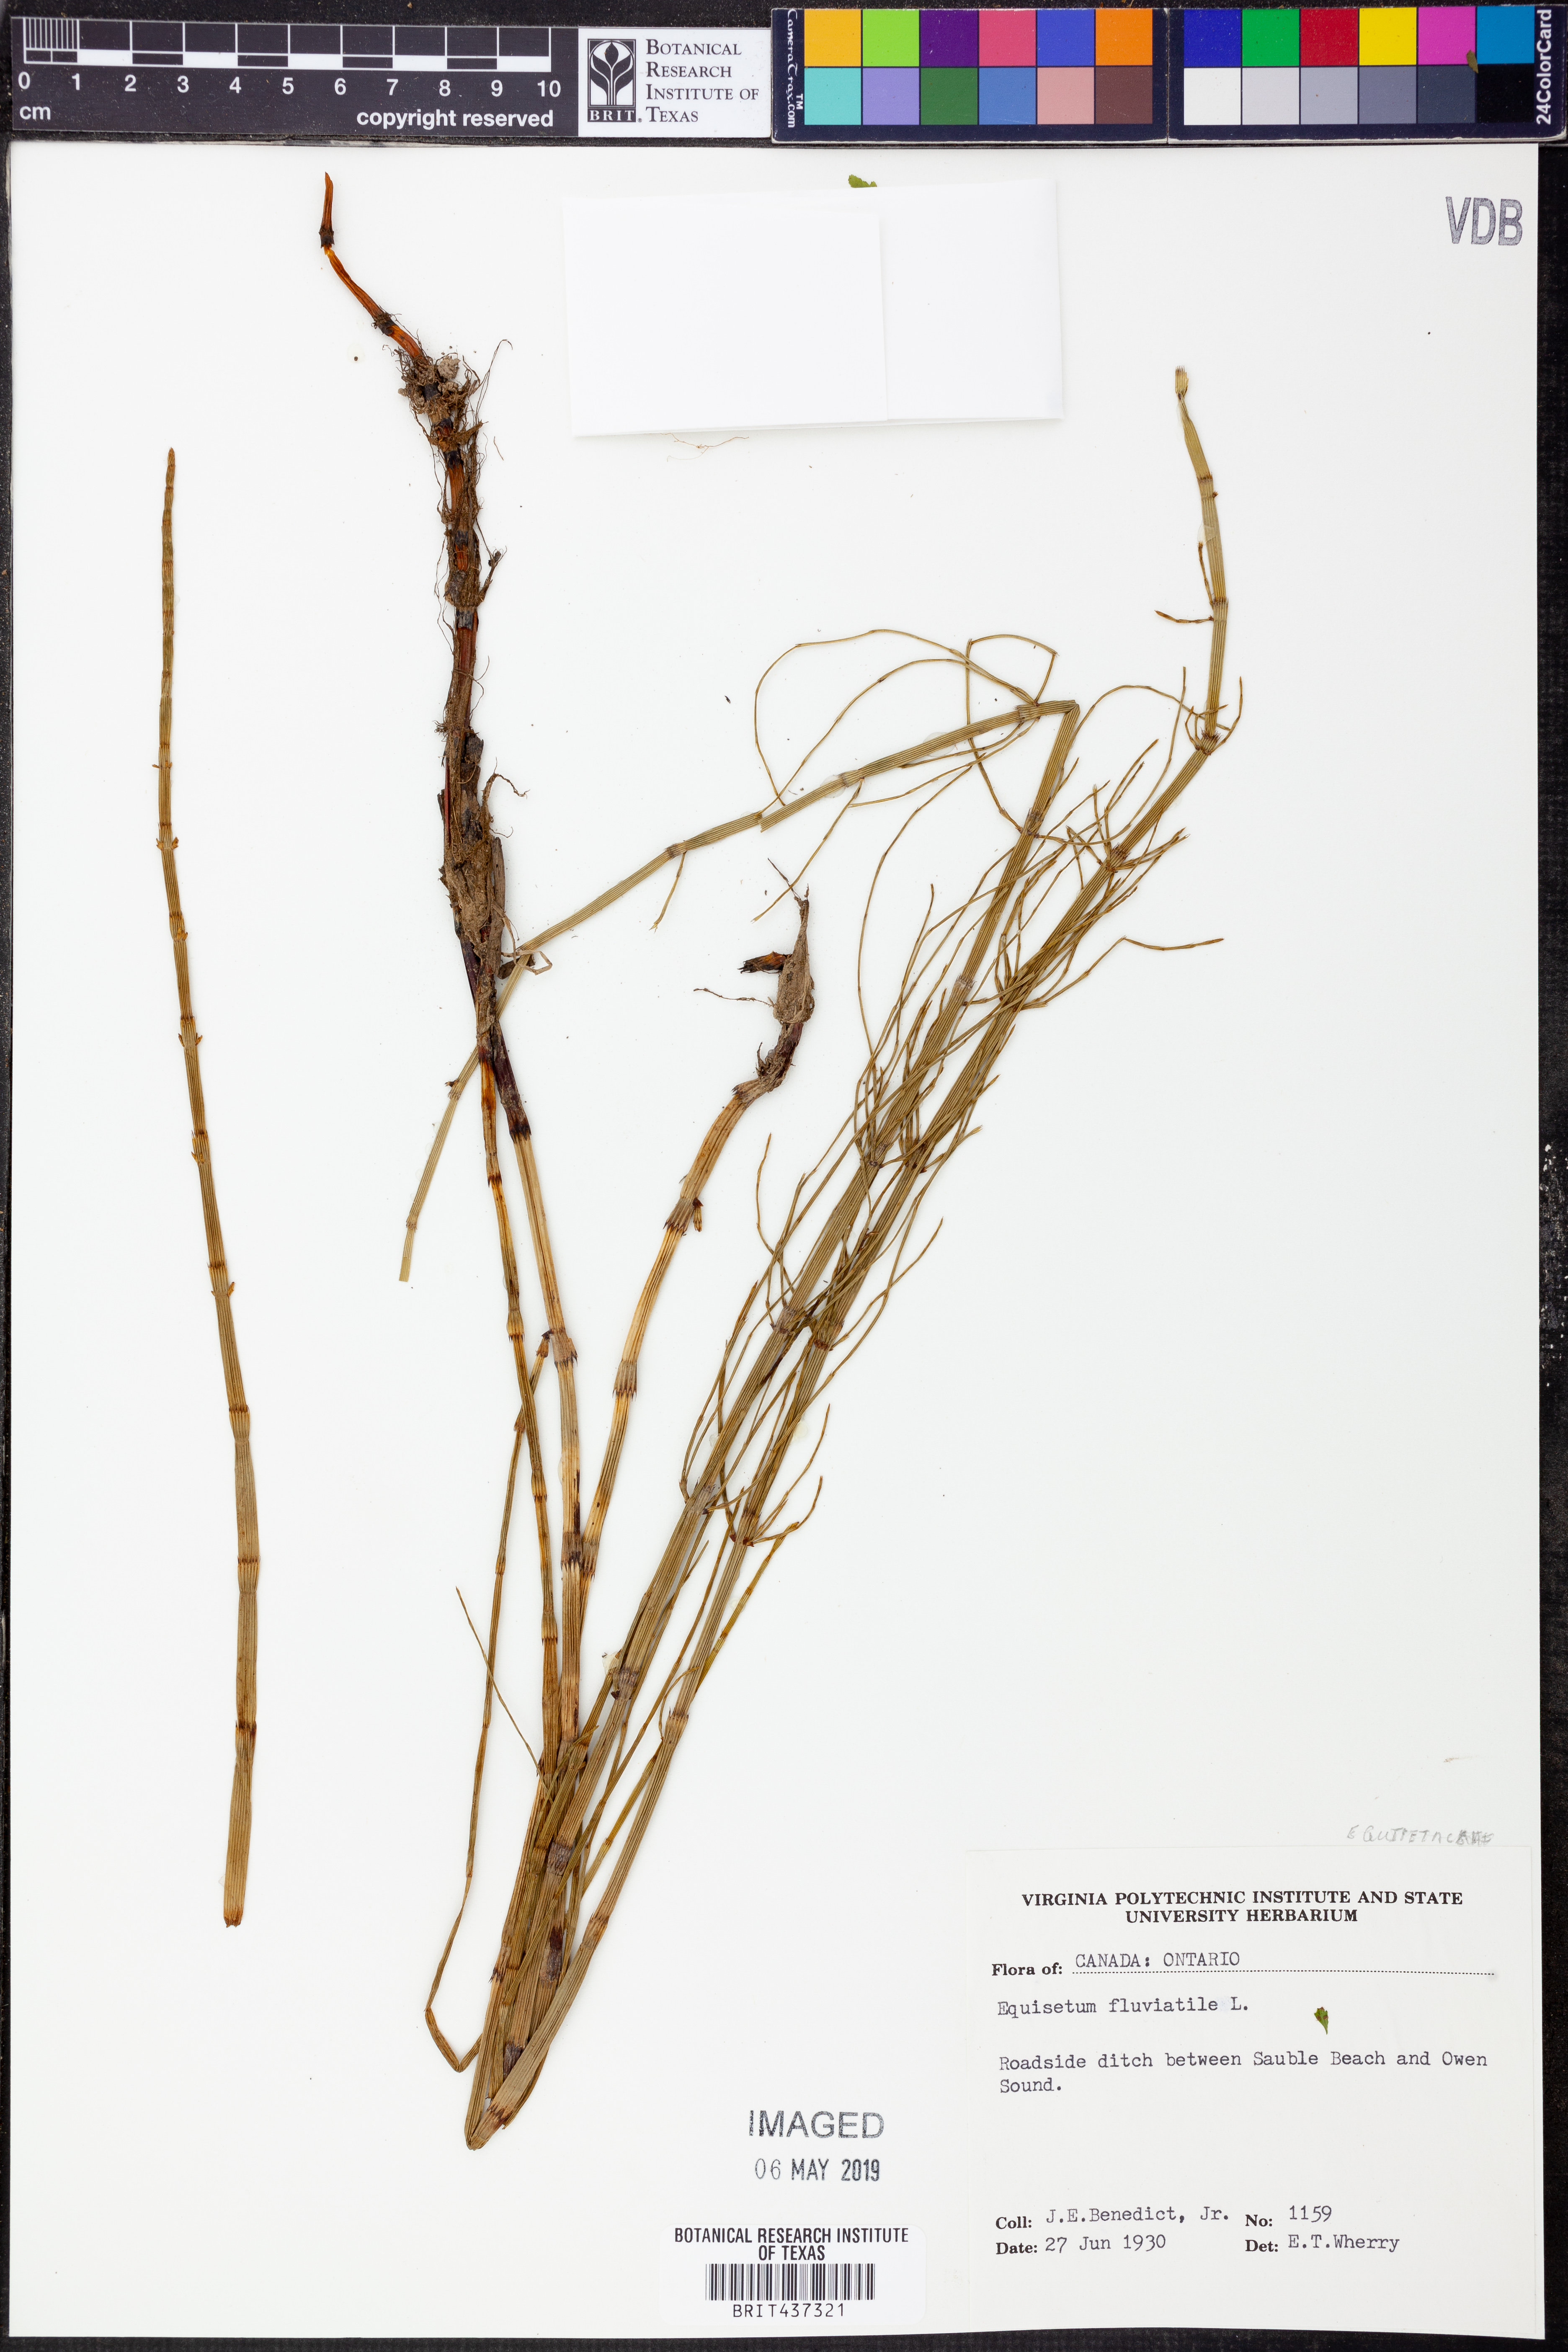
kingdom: Plantae
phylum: Tracheophyta
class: Polypodiopsida
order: Equisetales
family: Equisetaceae
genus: Equisetum
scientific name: Equisetum fluviatile
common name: Water horsetail
